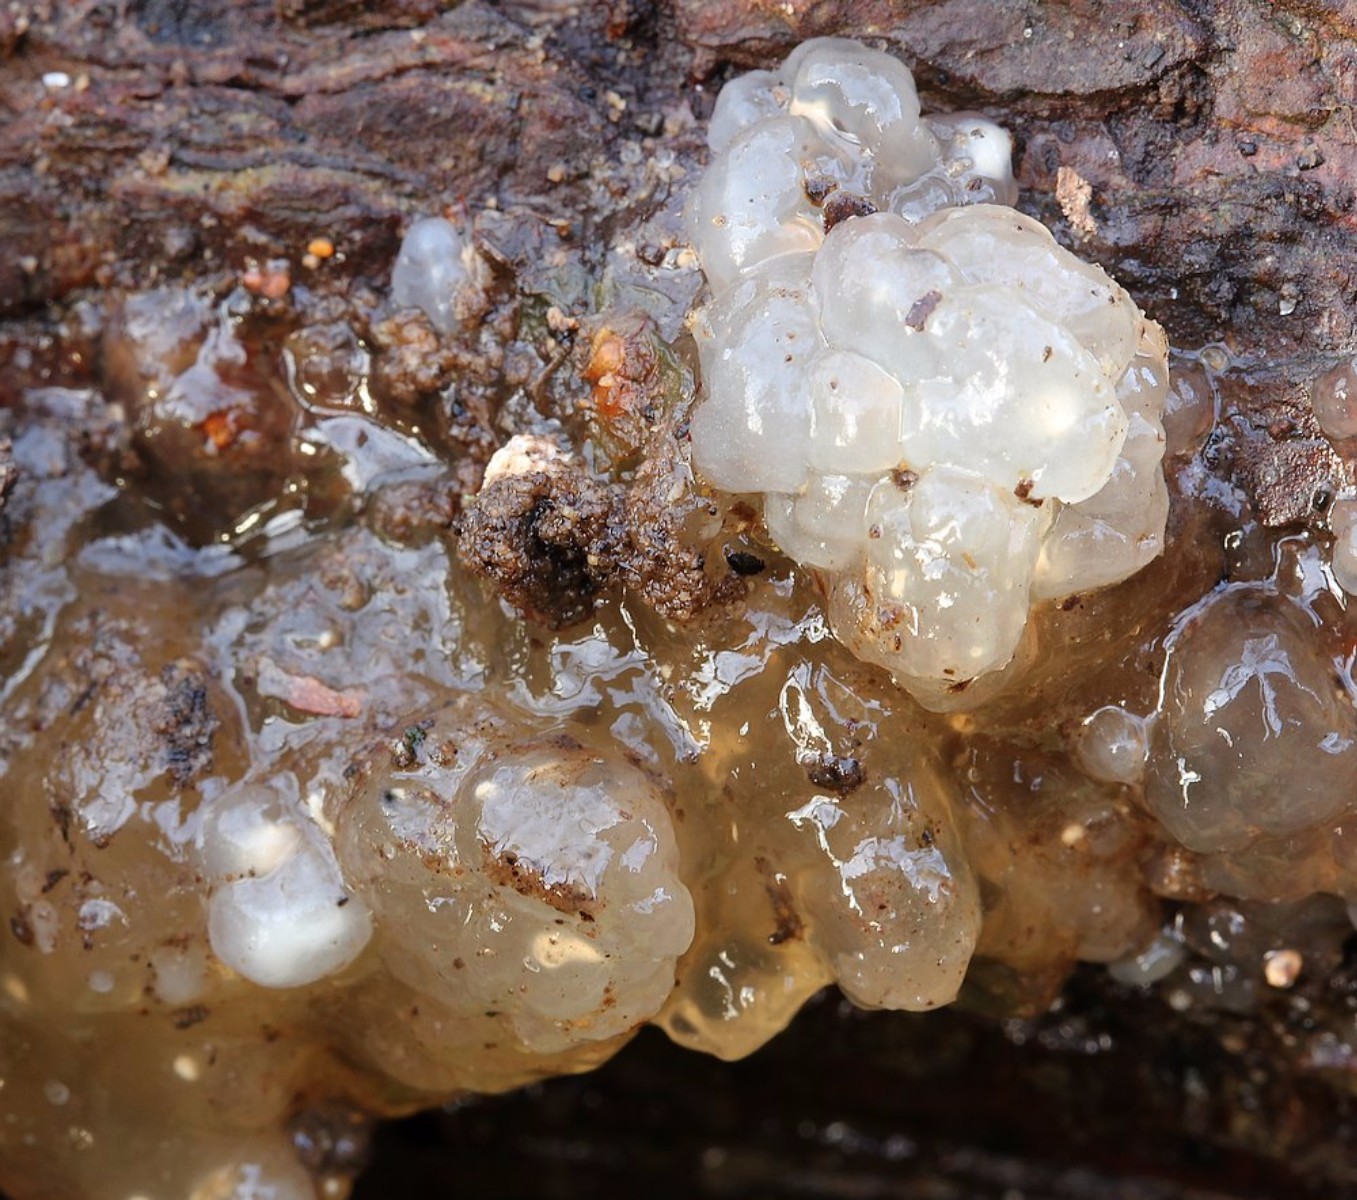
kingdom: Fungi
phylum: Basidiomycota
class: Agaricomycetes
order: Auriculariales
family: Hyaloriaceae
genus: Myxarium
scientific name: Myxarium nucleatum
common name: klar bævretop
